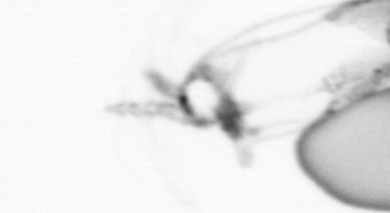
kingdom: Animalia
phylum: Arthropoda
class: Copepoda
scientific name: Copepoda
